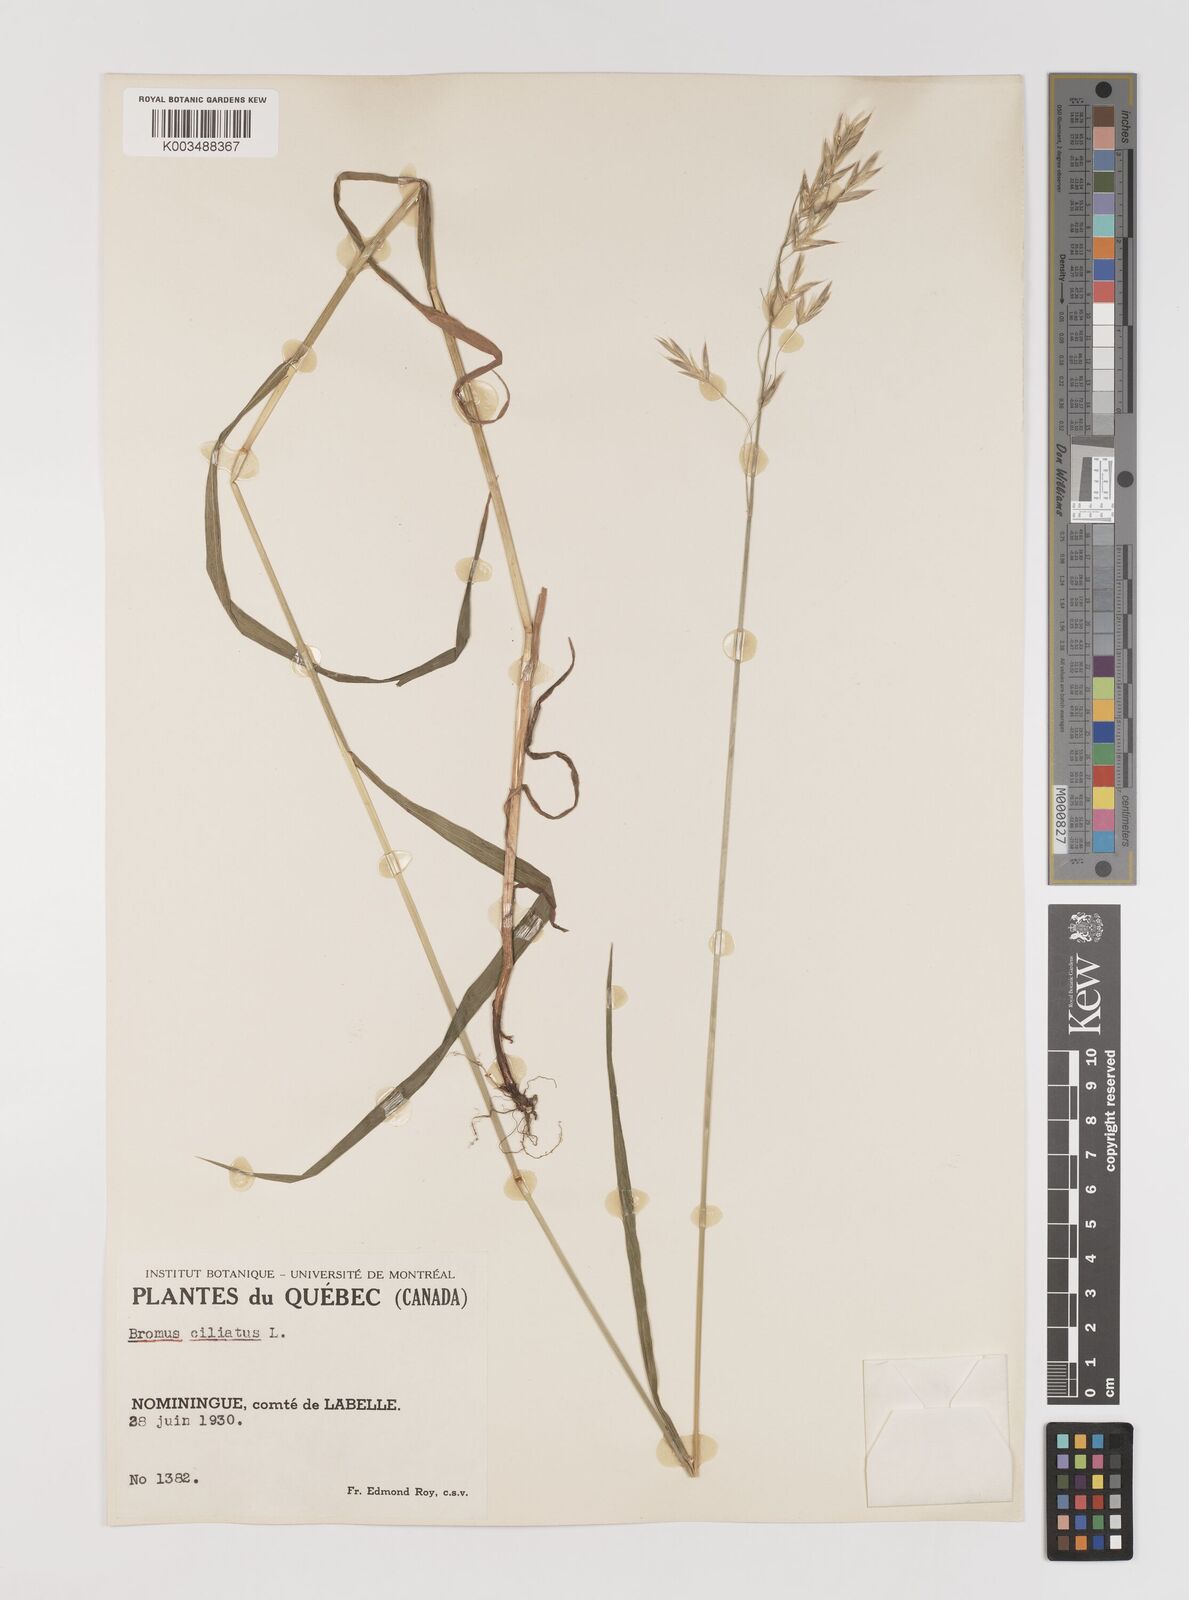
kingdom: Plantae
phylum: Tracheophyta
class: Liliopsida
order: Poales
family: Poaceae
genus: Bromus
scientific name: Bromus ciliatus
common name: Fringe brome
